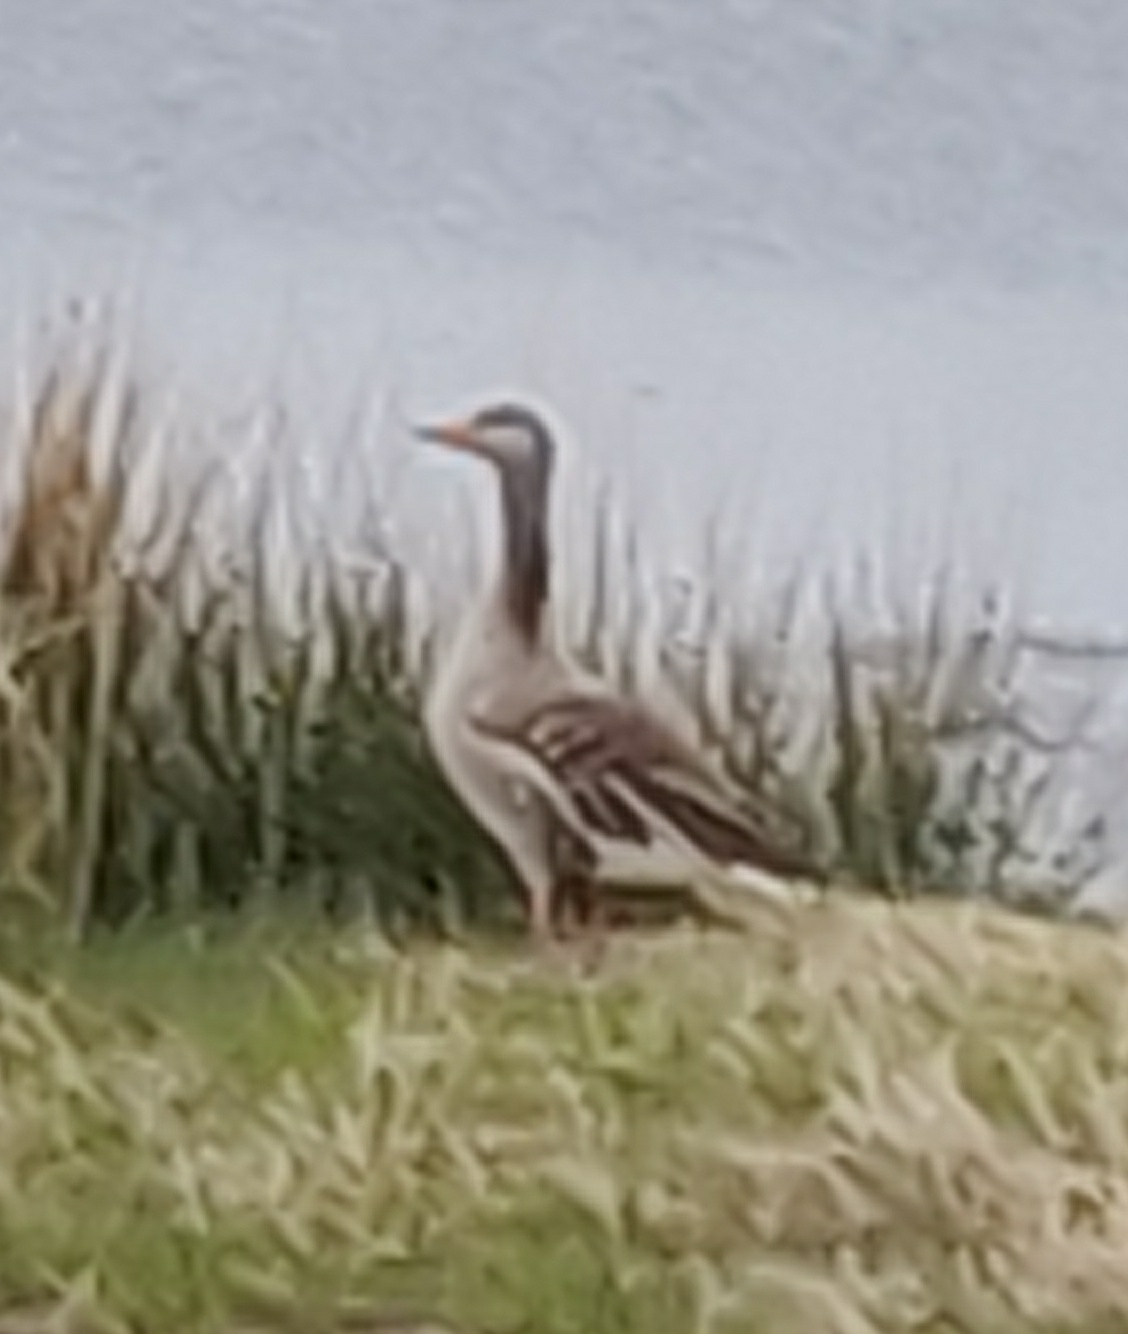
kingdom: Animalia
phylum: Chordata
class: Aves
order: Anseriformes
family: Anatidae
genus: Anser
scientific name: Anser anser
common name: Grågås
